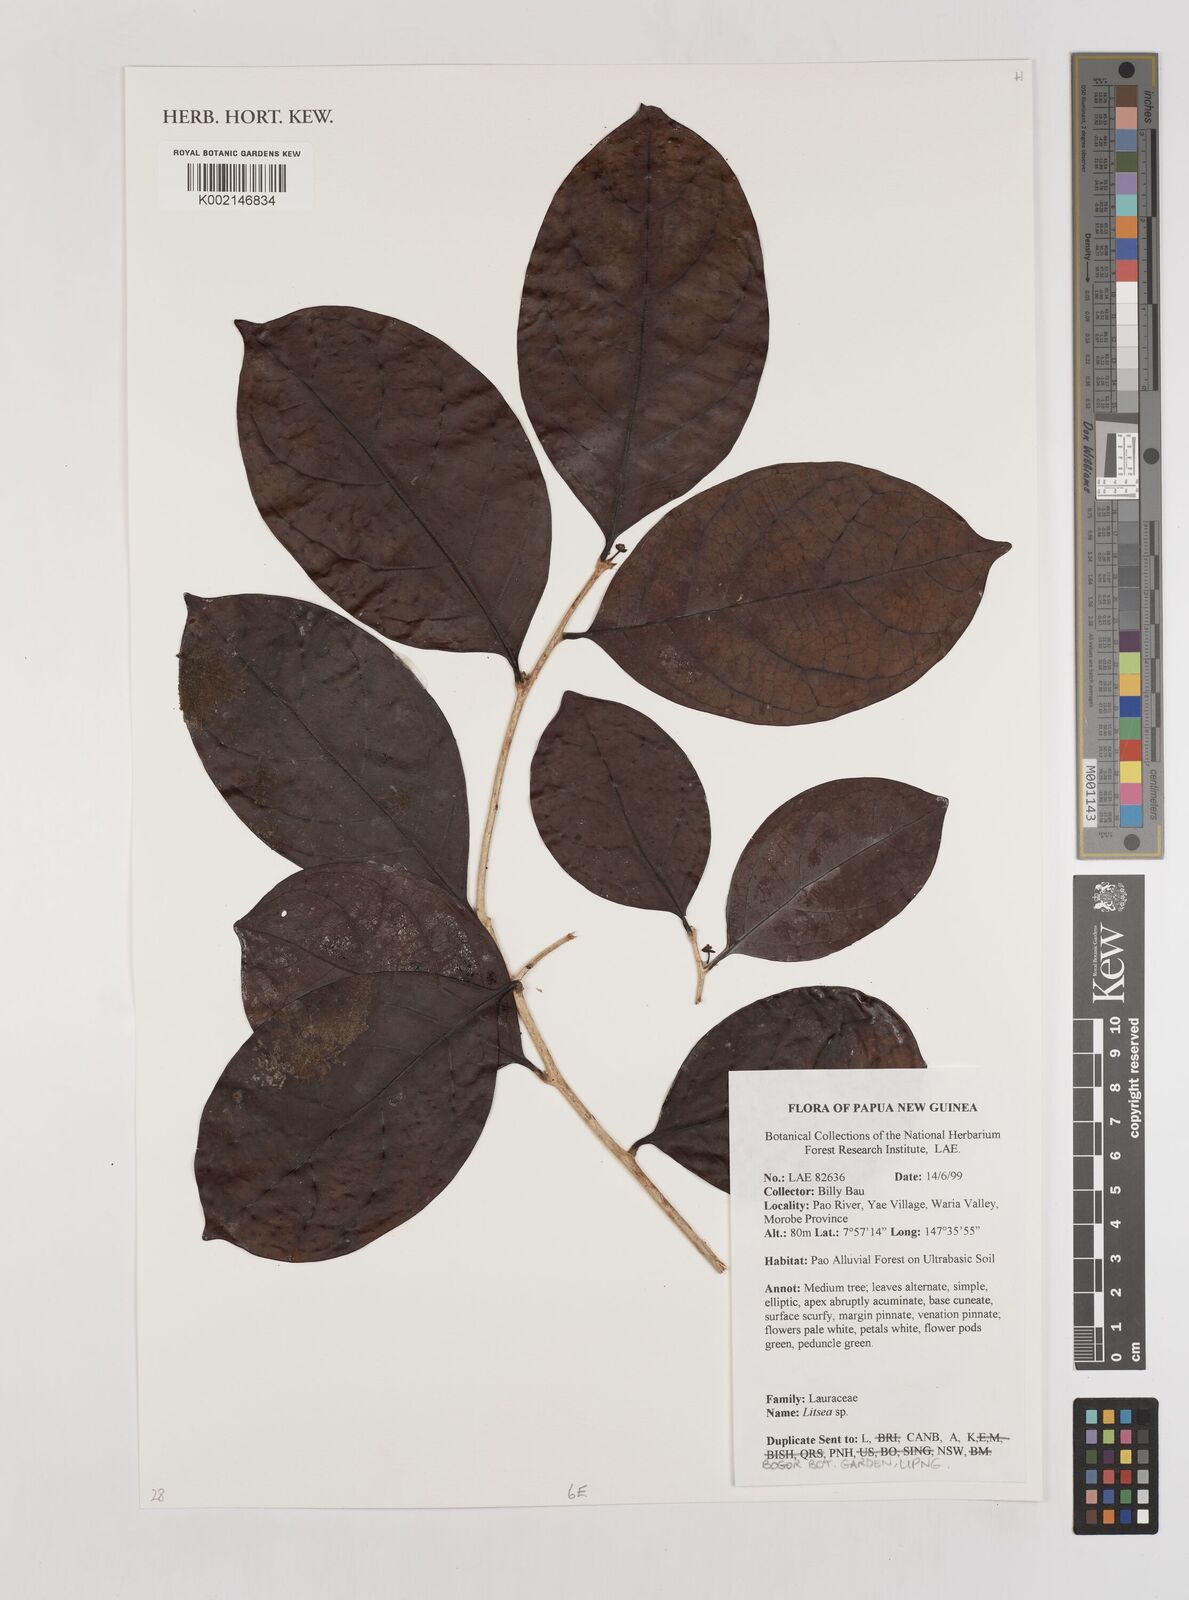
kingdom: Plantae
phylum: Tracheophyta
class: Magnoliopsida
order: Laurales
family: Lauraceae
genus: Litsea
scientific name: Litsea
